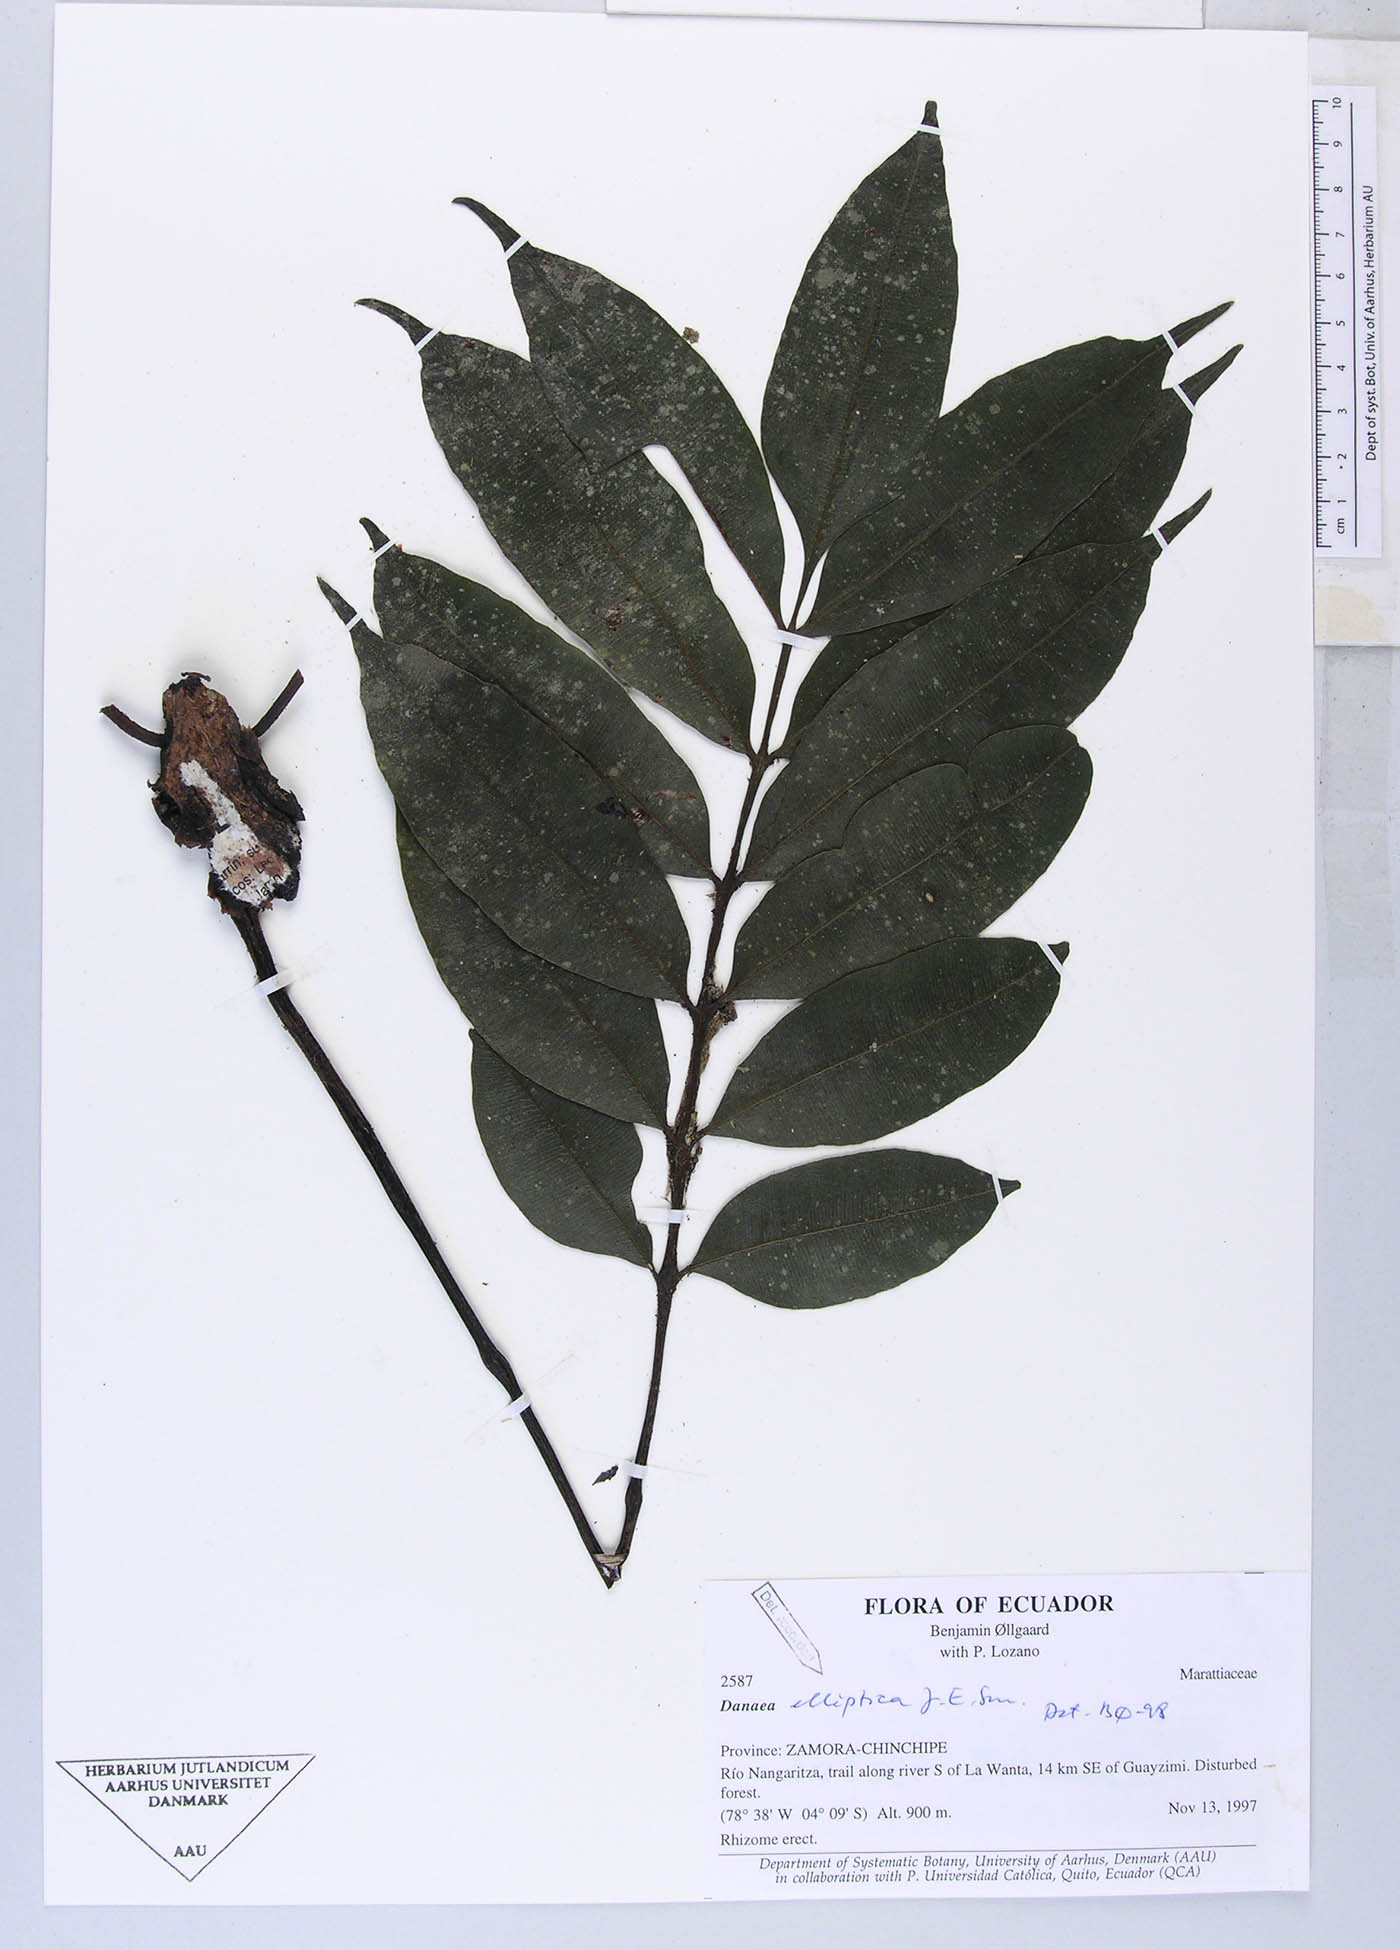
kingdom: Plantae
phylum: Tracheophyta
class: Polypodiopsida
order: Marattiales
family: Marattiaceae
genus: Danaea
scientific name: Danaea
